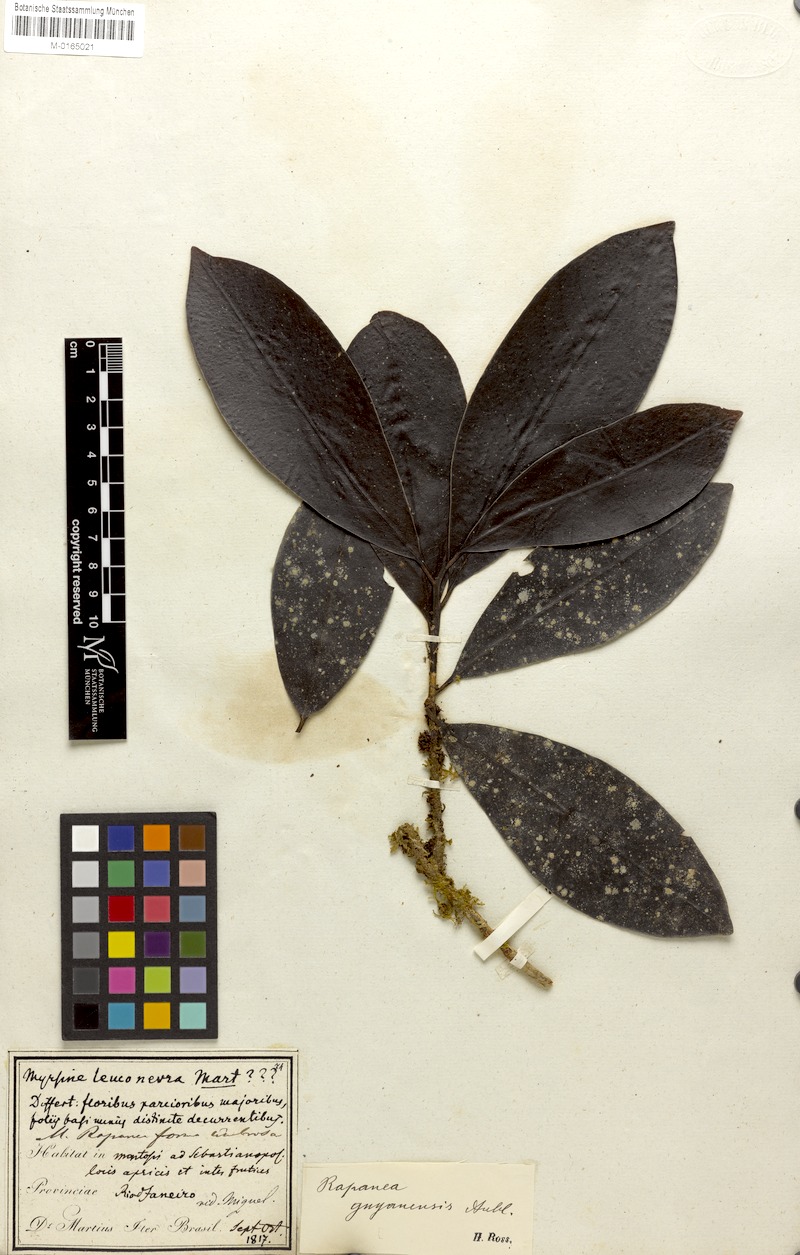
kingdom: Plantae
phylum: Tracheophyta
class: Magnoliopsida
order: Ericales
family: Primulaceae
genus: Myrsine
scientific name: Myrsine guianensis
